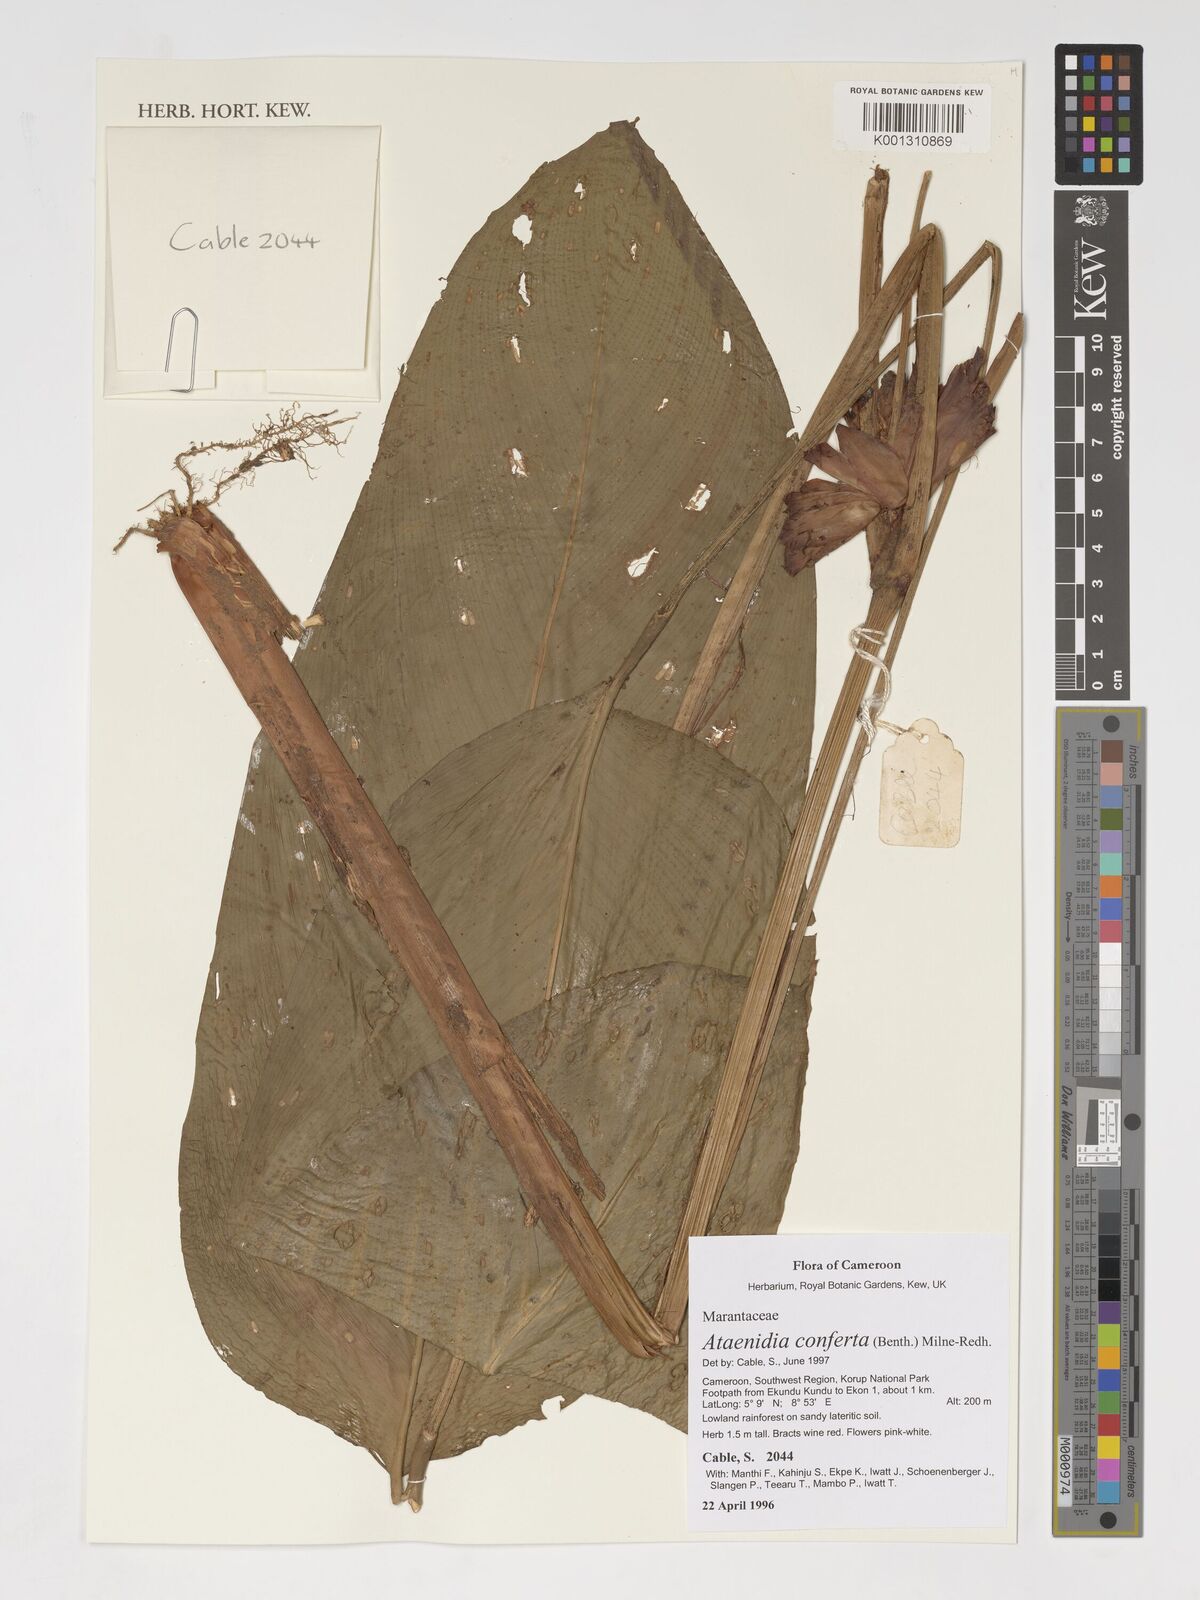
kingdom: Plantae
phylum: Tracheophyta
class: Liliopsida
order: Zingiberales
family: Marantaceae
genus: Marantochloa
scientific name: Marantochloa conferta
